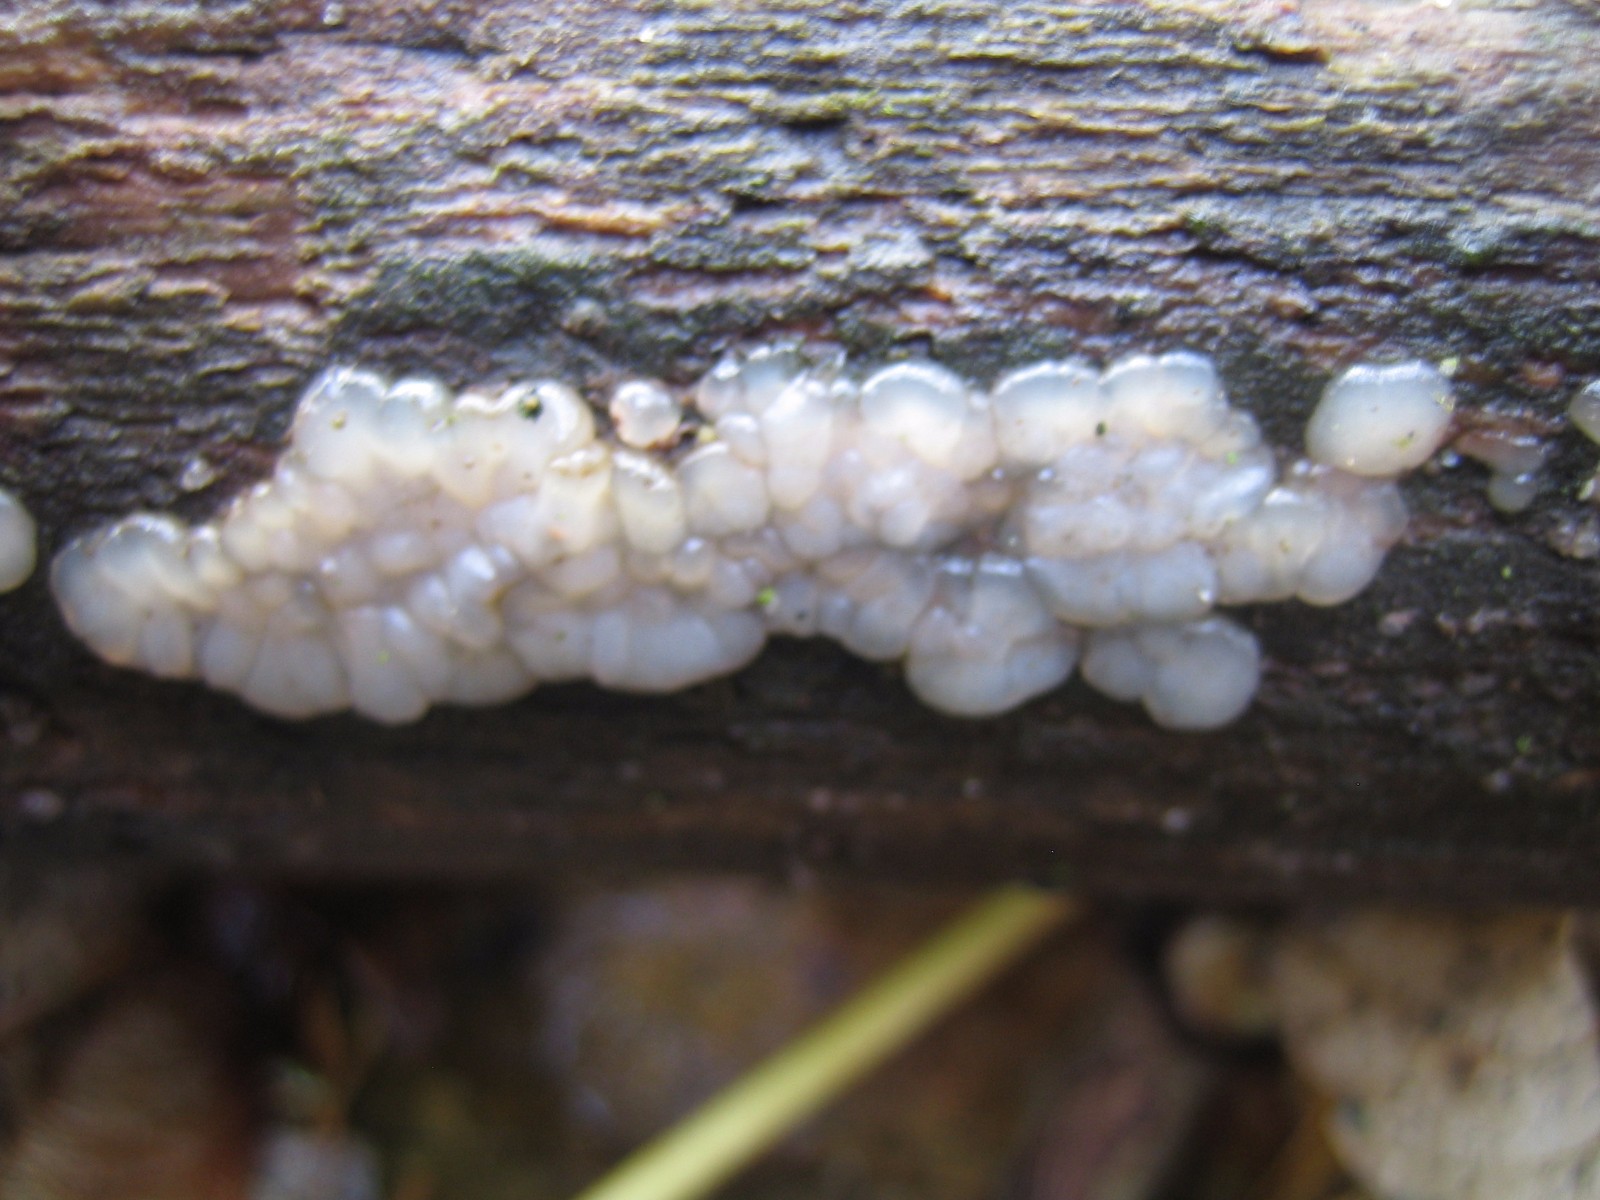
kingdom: Fungi
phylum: Basidiomycota
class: Agaricomycetes
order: Auriculariales
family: Auriculariaceae
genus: Exidia
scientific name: Exidia thuretiana
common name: hvidlig bævretop
